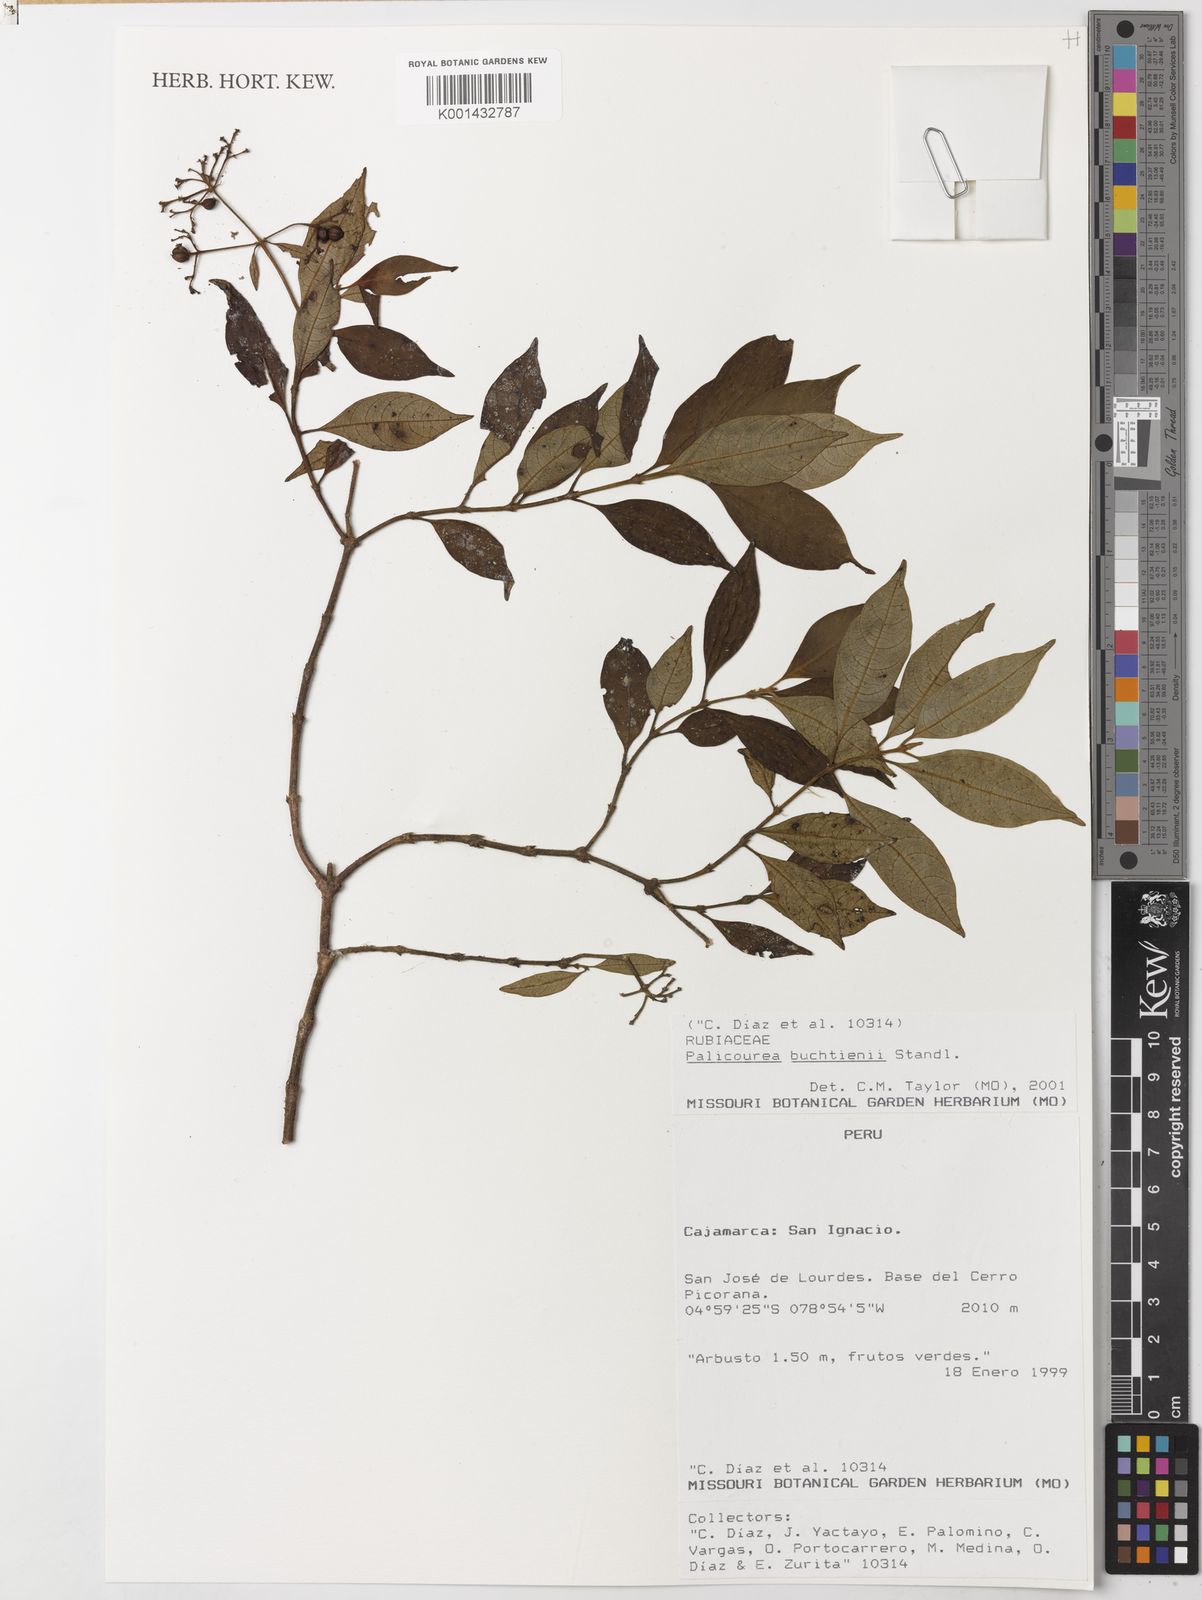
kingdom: Plantae
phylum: Tracheophyta
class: Magnoliopsida
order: Gentianales
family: Rubiaceae
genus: Palicourea
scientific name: Palicourea buchtienii
